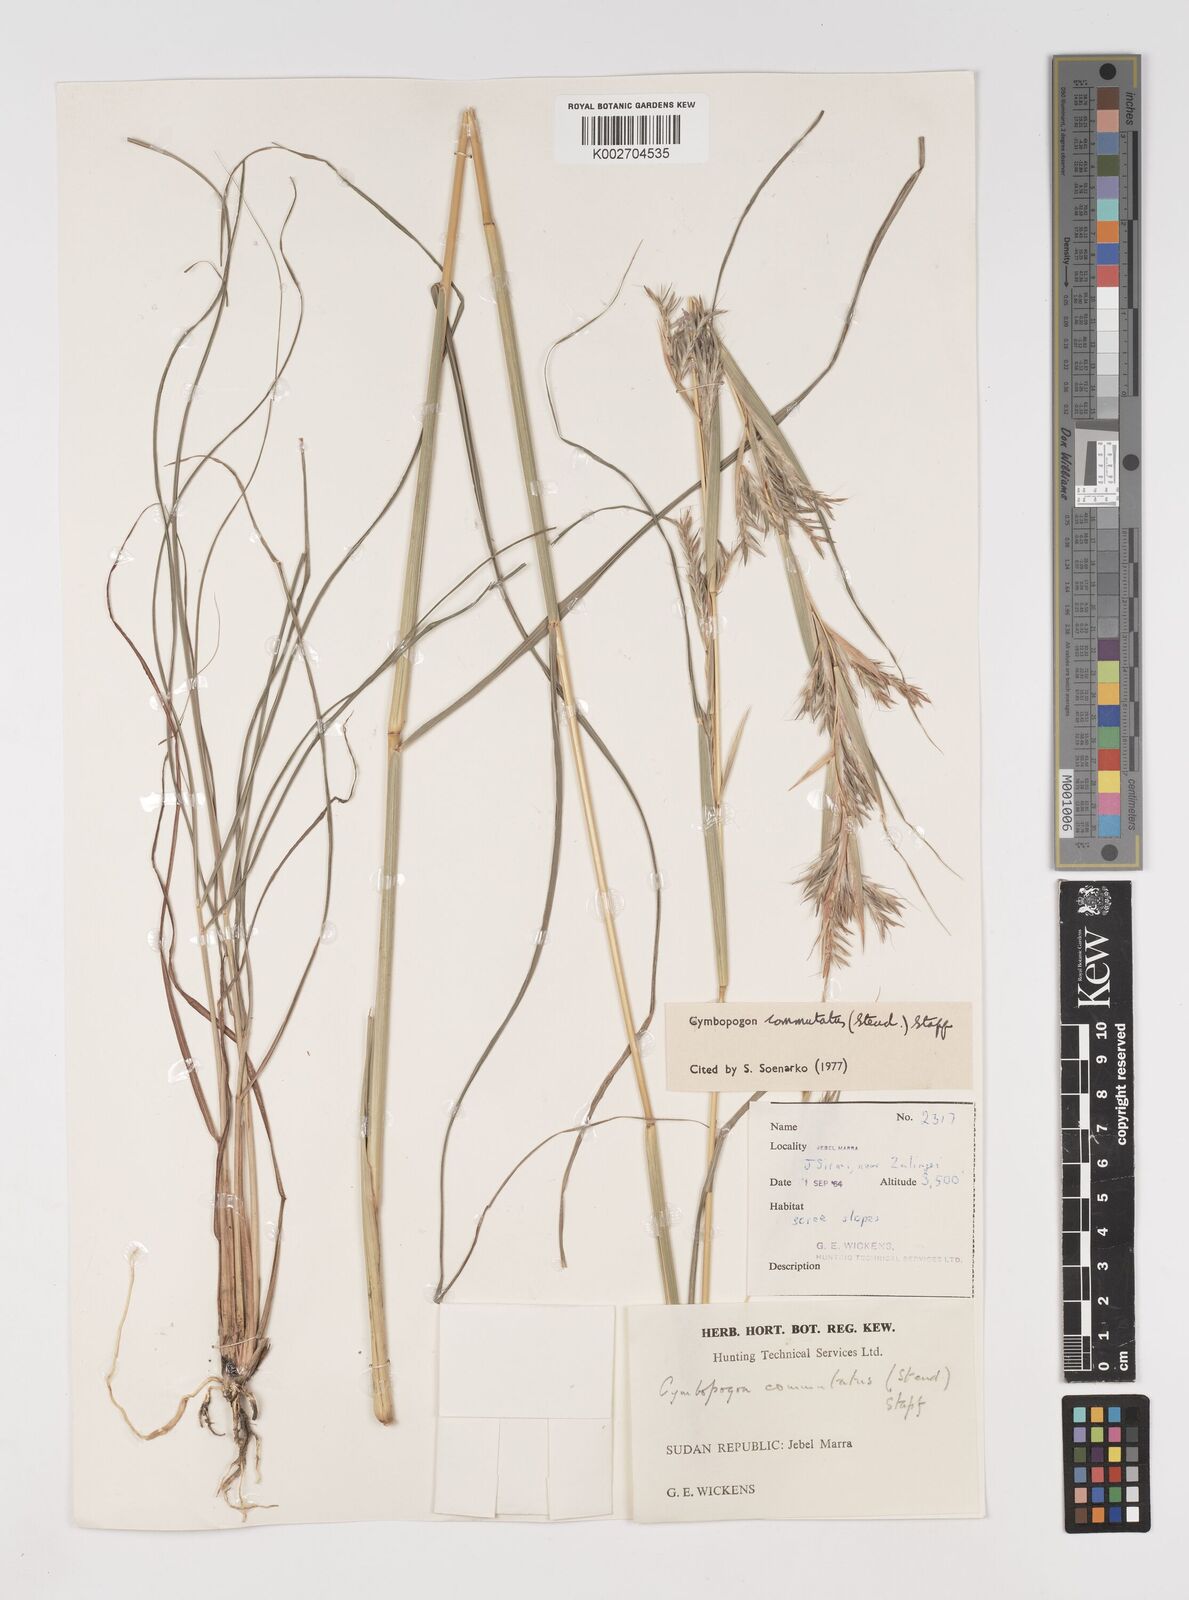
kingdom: Plantae
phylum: Tracheophyta
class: Liliopsida
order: Poales
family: Poaceae
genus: Cymbopogon
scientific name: Cymbopogon commutatus
